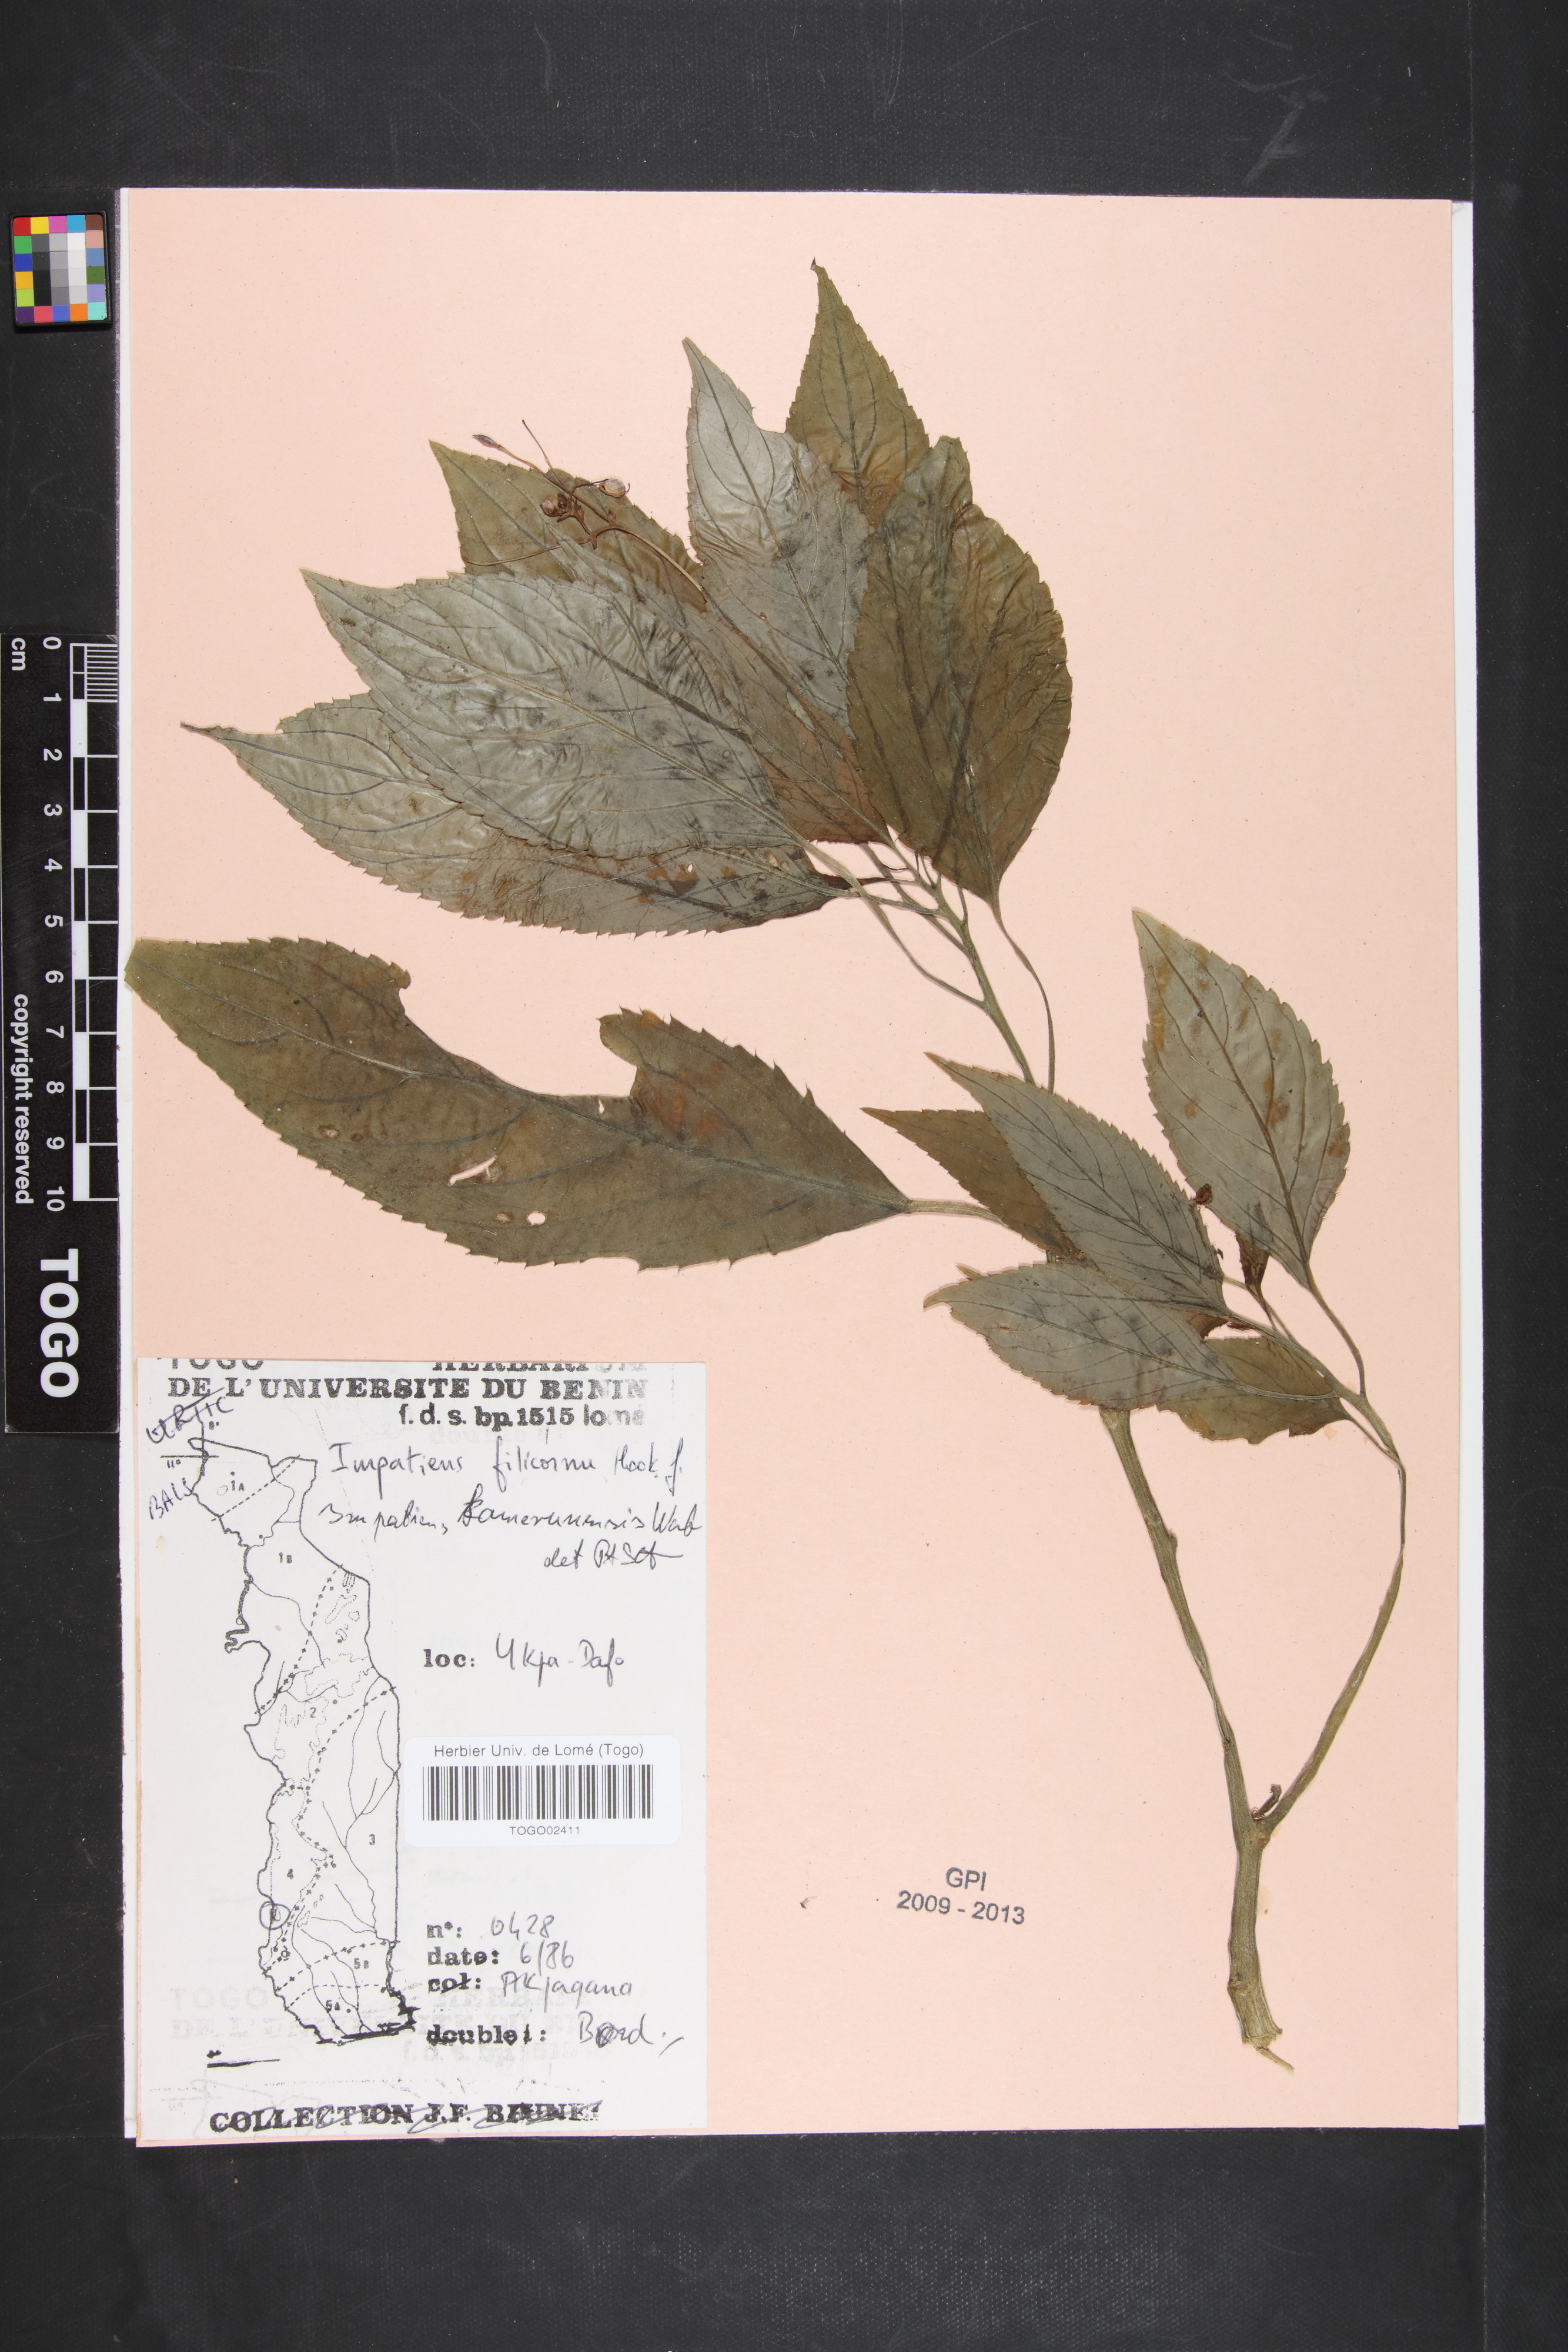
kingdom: Plantae
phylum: Tracheophyta
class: Magnoliopsida
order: Ericales
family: Balsaminaceae
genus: Impatiens
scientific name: Impatiens filicornu
